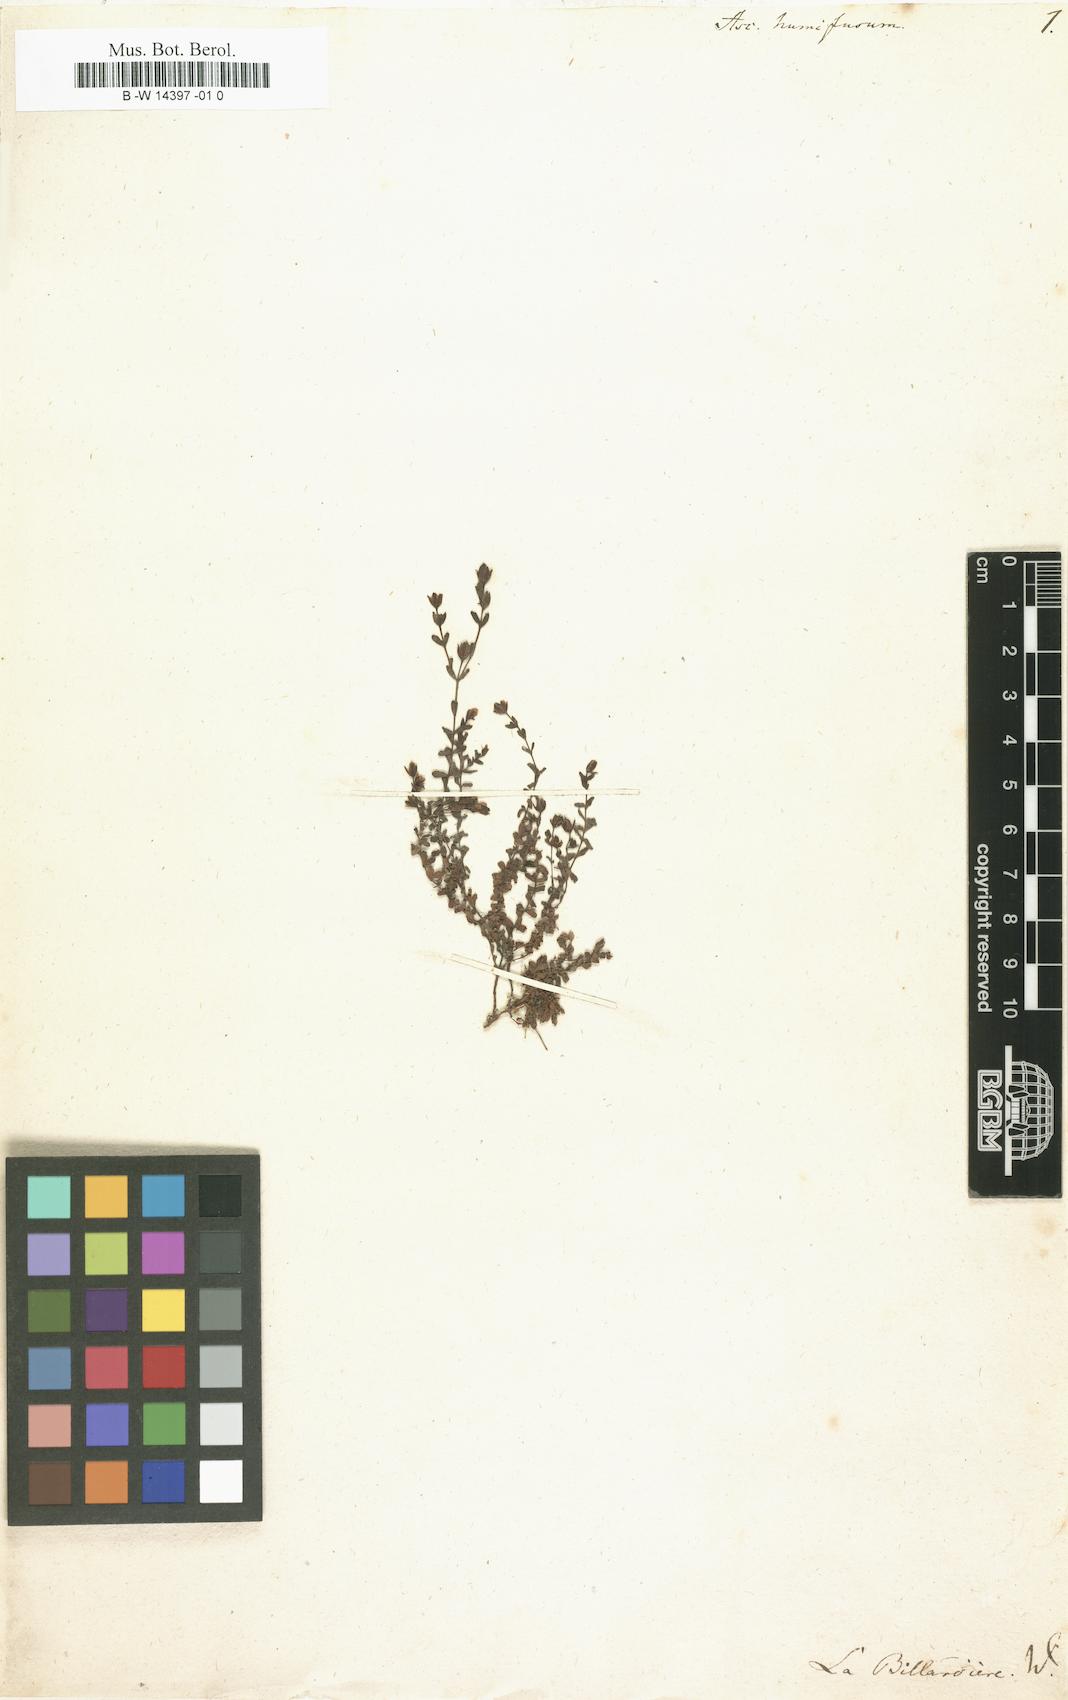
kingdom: Plantae
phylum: Tracheophyta
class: Magnoliopsida
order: Malpighiales
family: Hypericaceae
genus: Hypericum
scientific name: Hypericum japonicum
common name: Matted st. john's-wort
